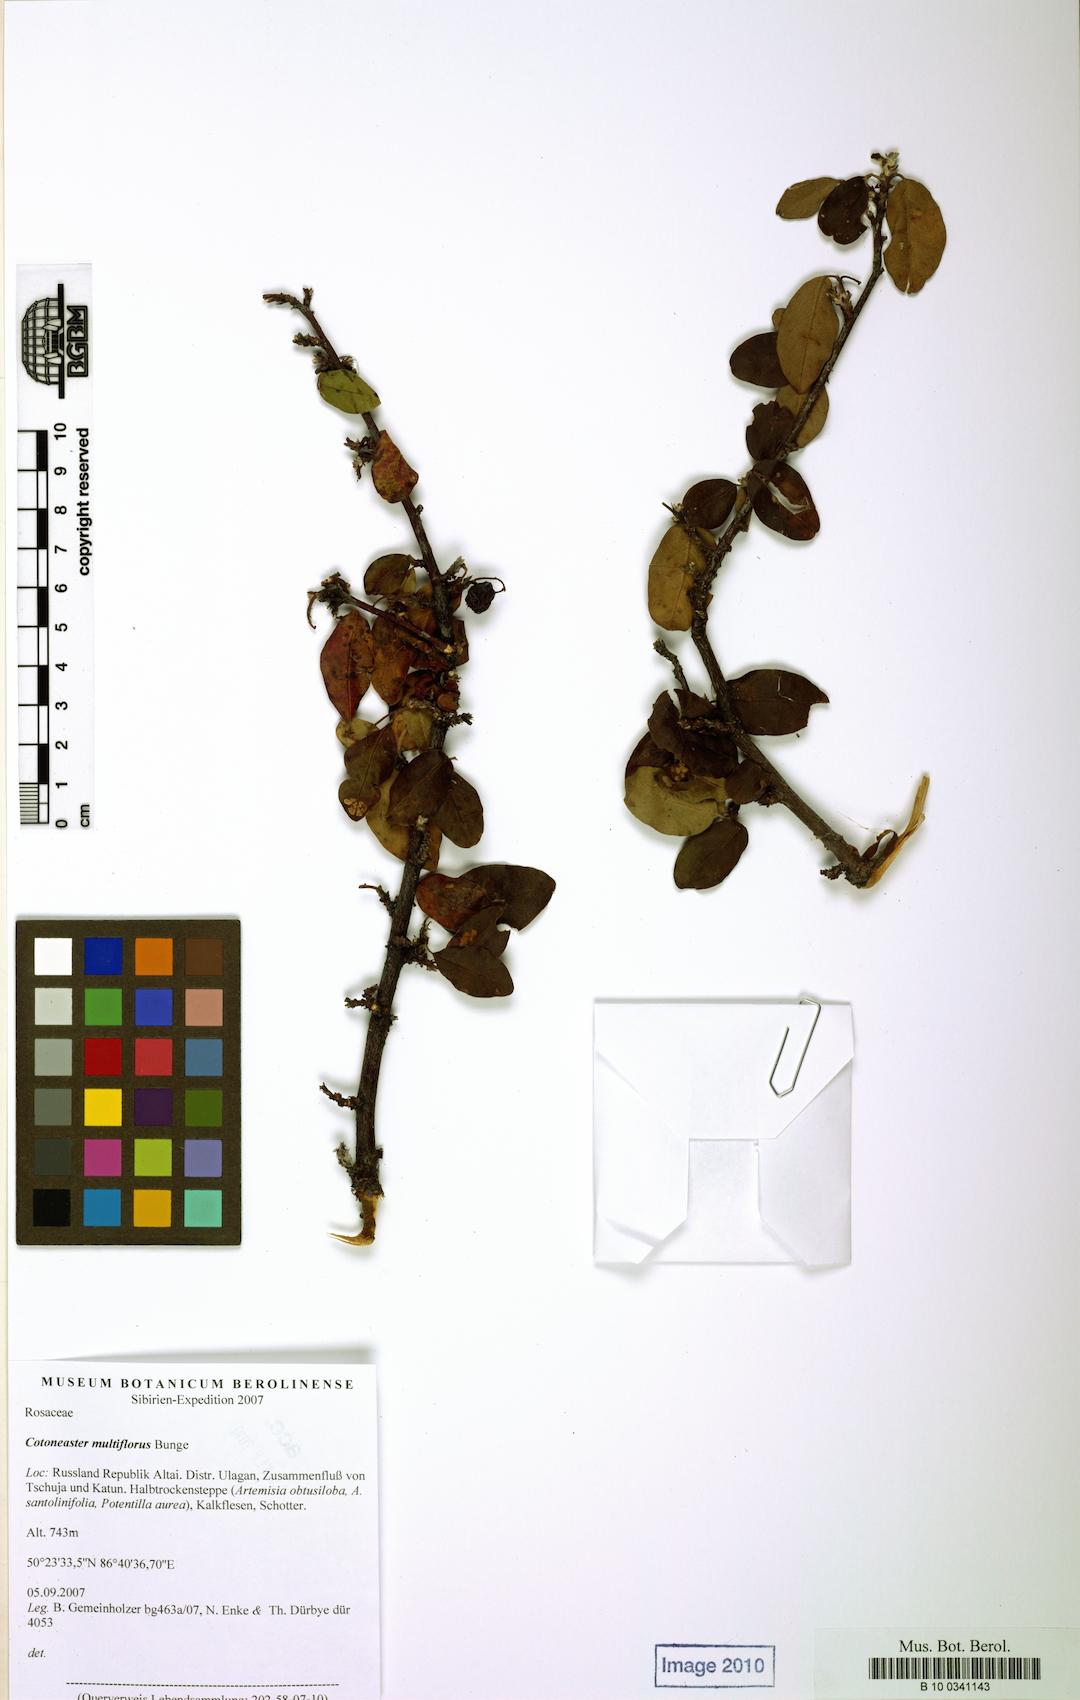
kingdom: Plantae
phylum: Tracheophyta
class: Magnoliopsida
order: Rosales
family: Rosaceae
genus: Cotoneaster
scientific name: Cotoneaster multiflorus
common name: Cotoneaster
